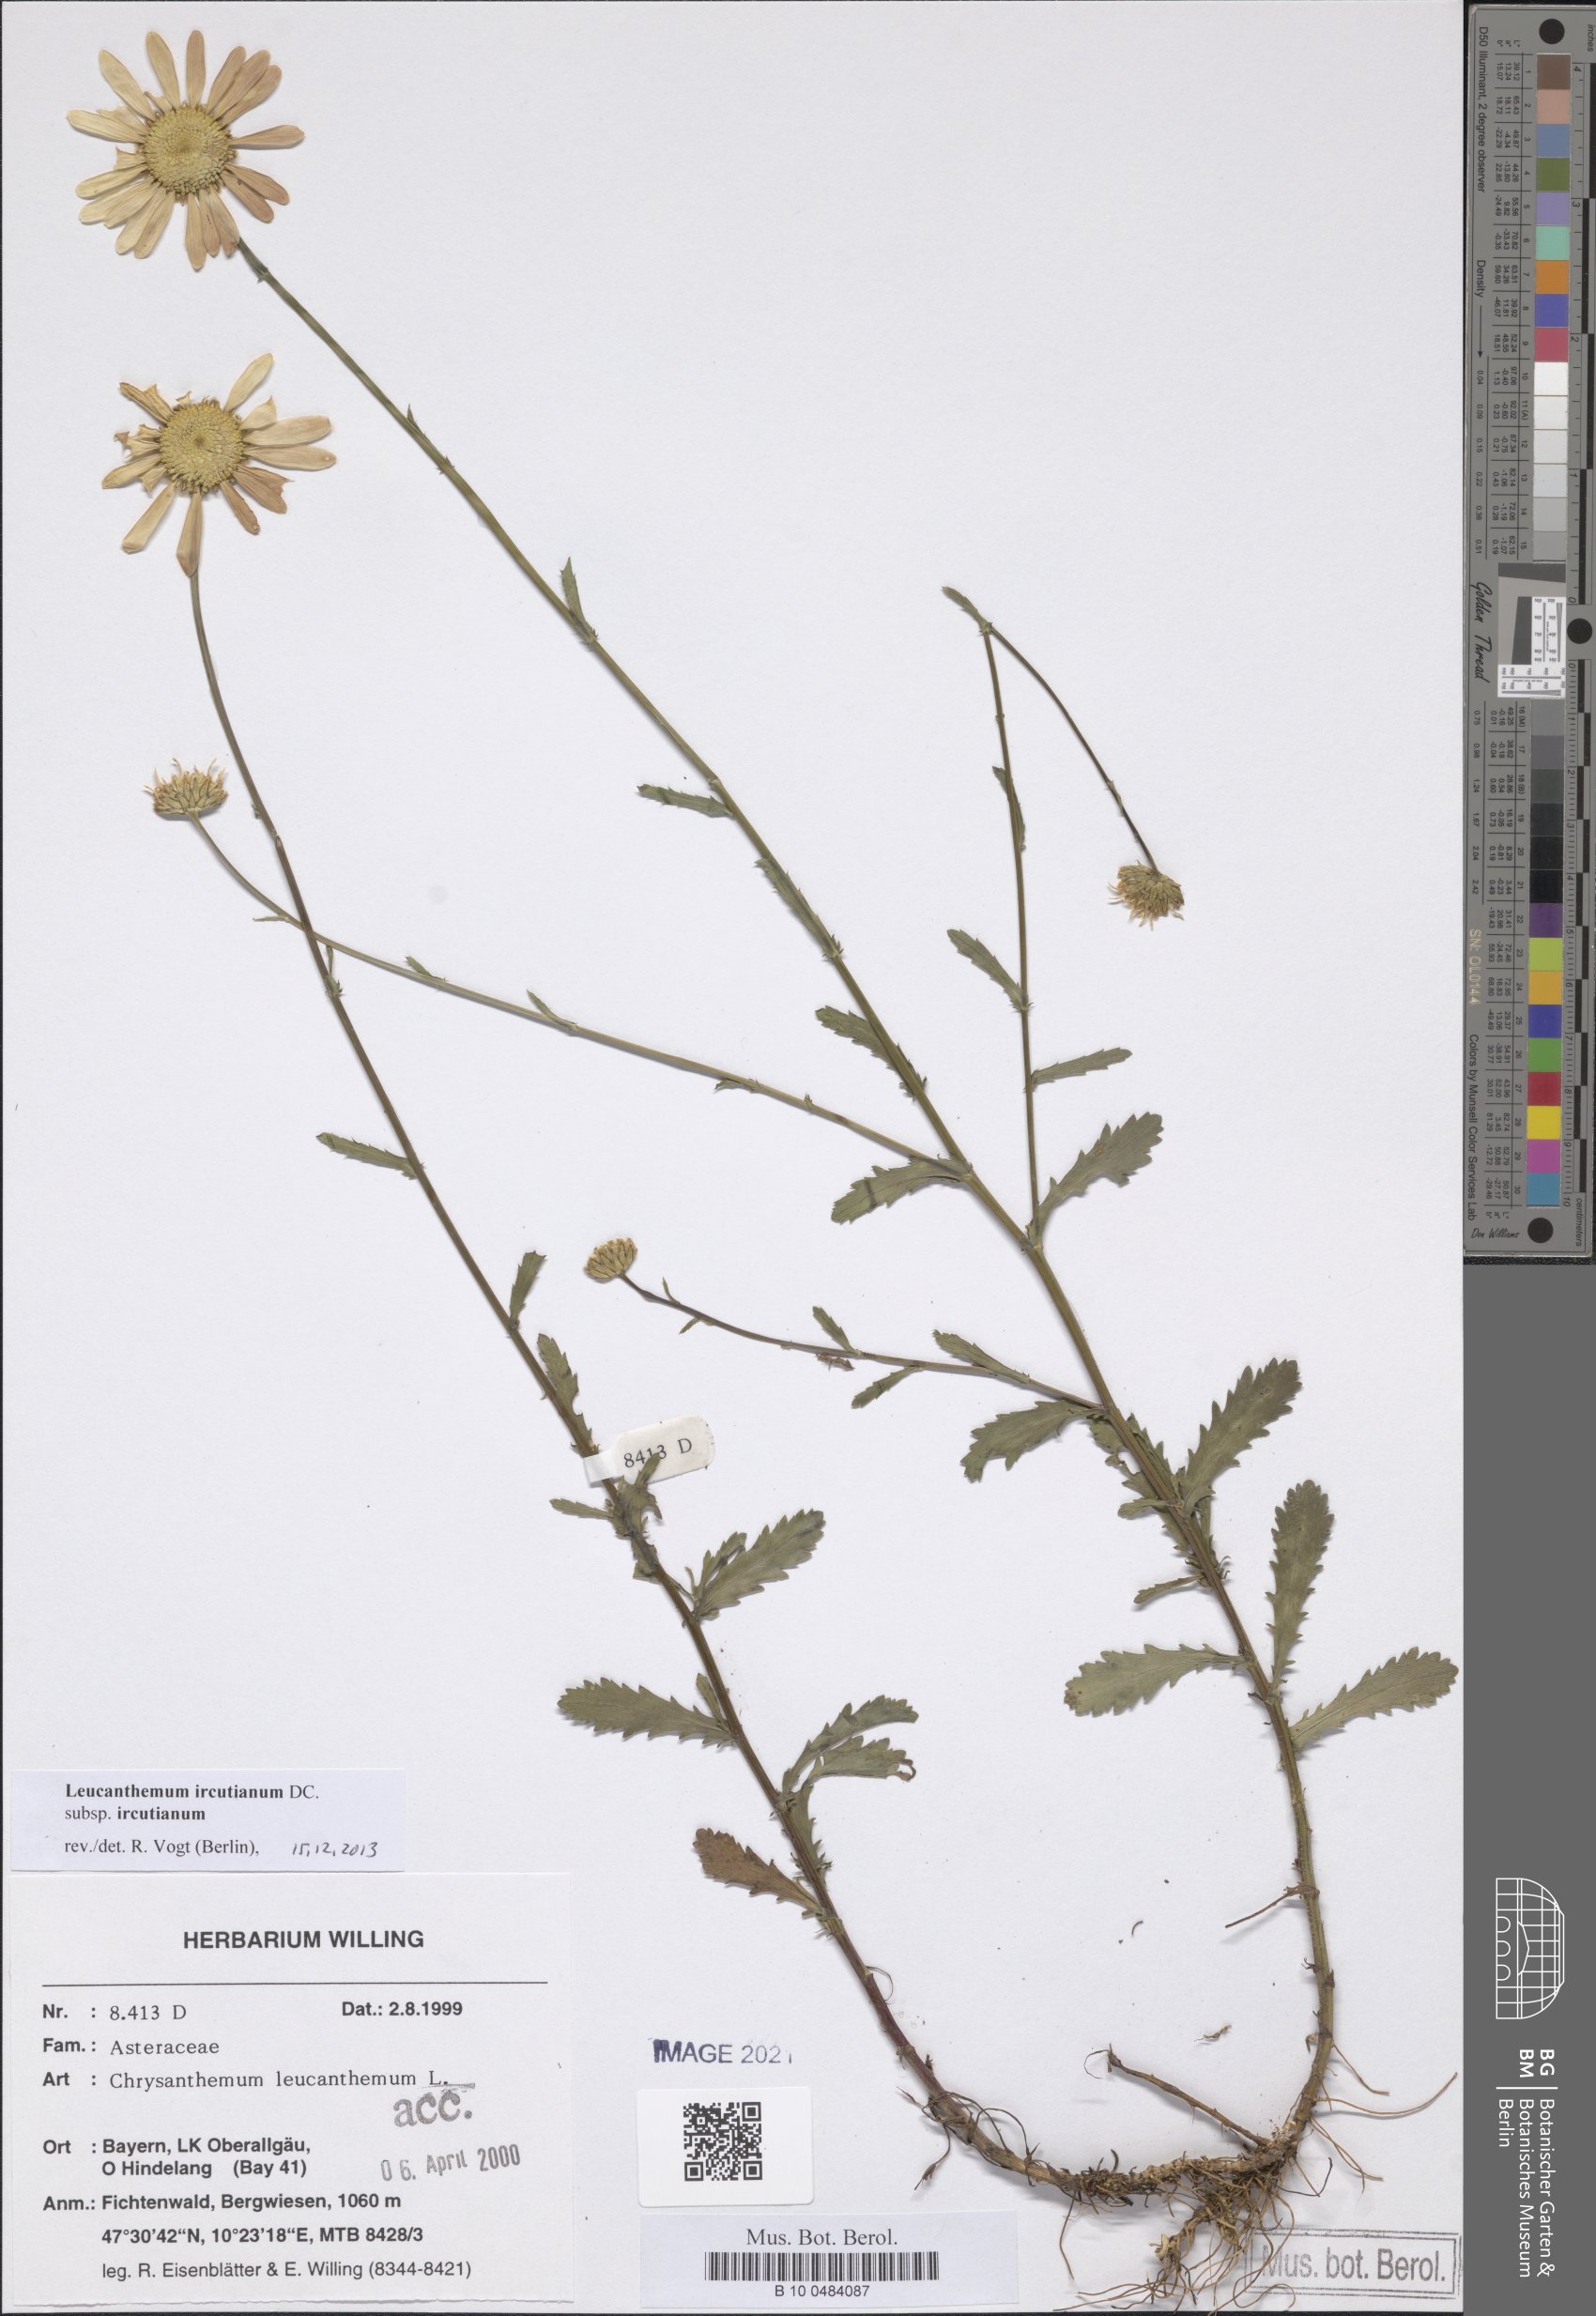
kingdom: Plantae
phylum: Tracheophyta
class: Magnoliopsida
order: Asterales
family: Asteraceae
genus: Leucanthemum
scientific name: Leucanthemum ircutianum
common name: Daisy
